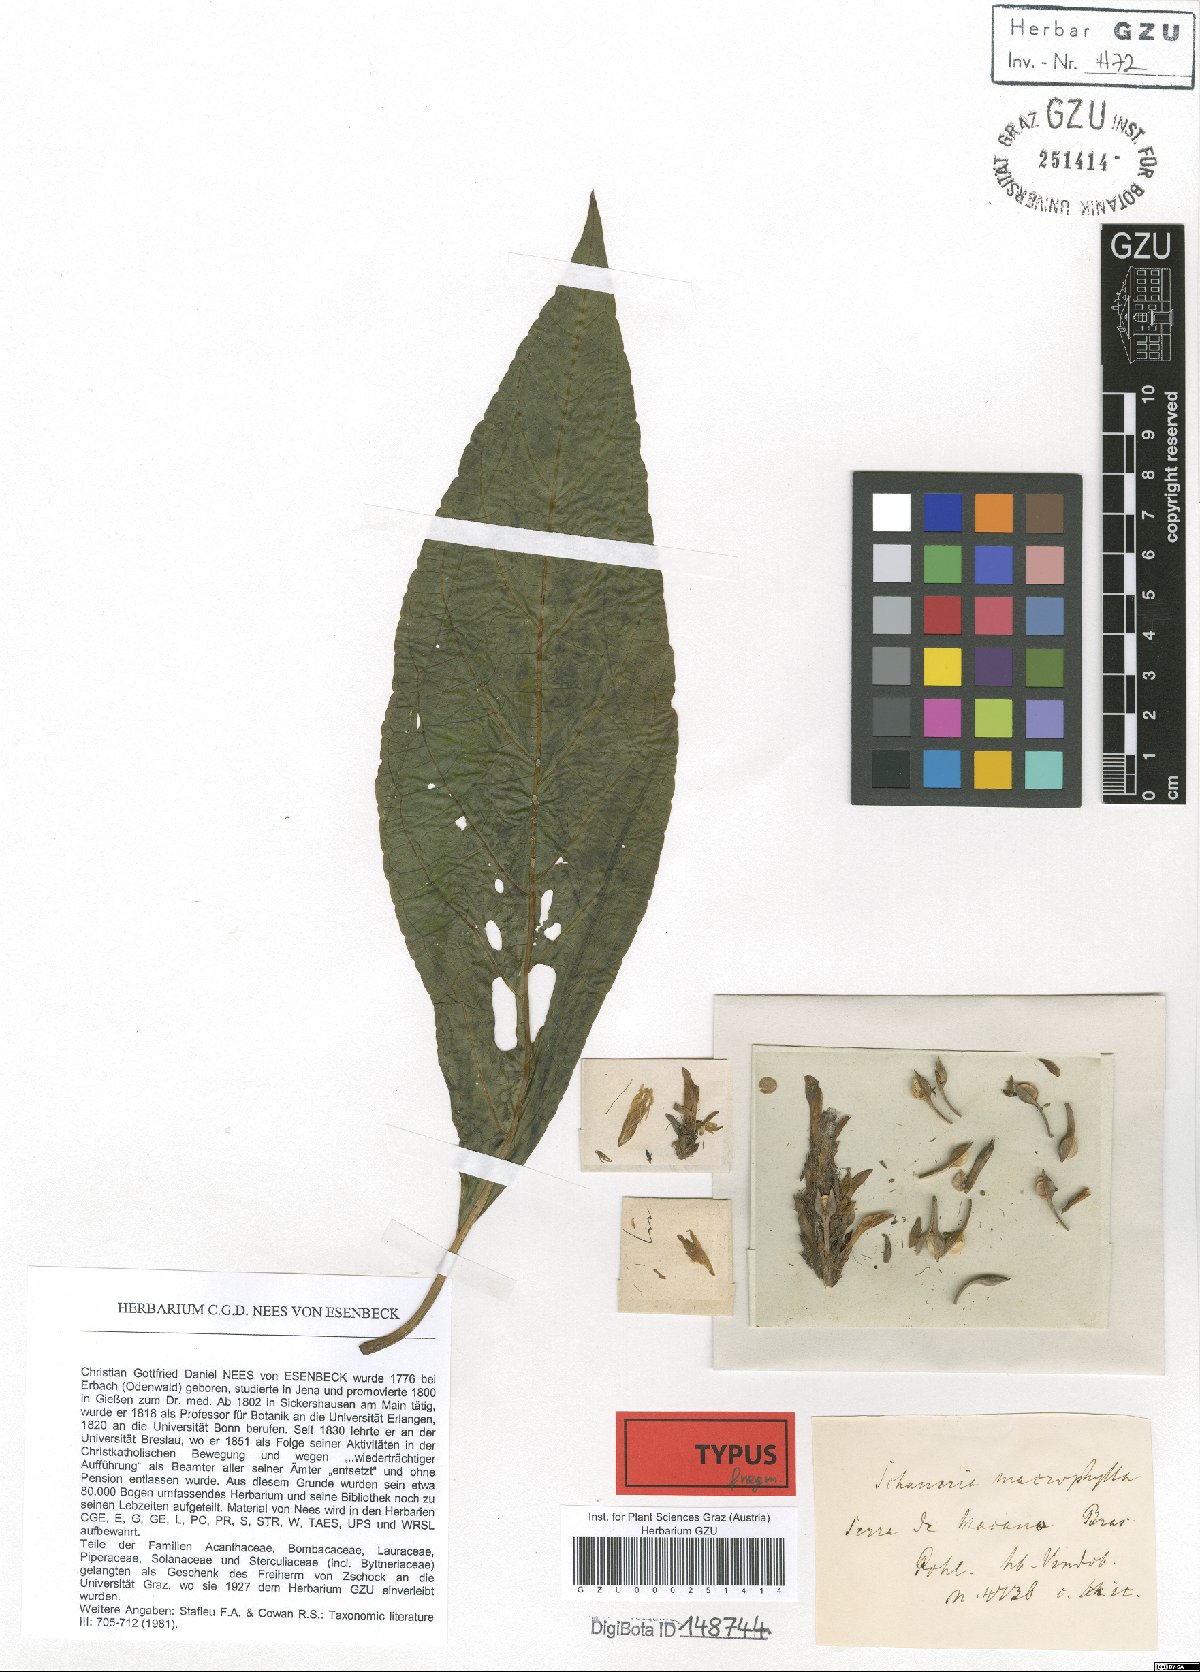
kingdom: Plantae
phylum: Tracheophyta
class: Magnoliopsida
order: Lamiales
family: Acanthaceae
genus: Schaueria
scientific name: Schaueria macrophylla
